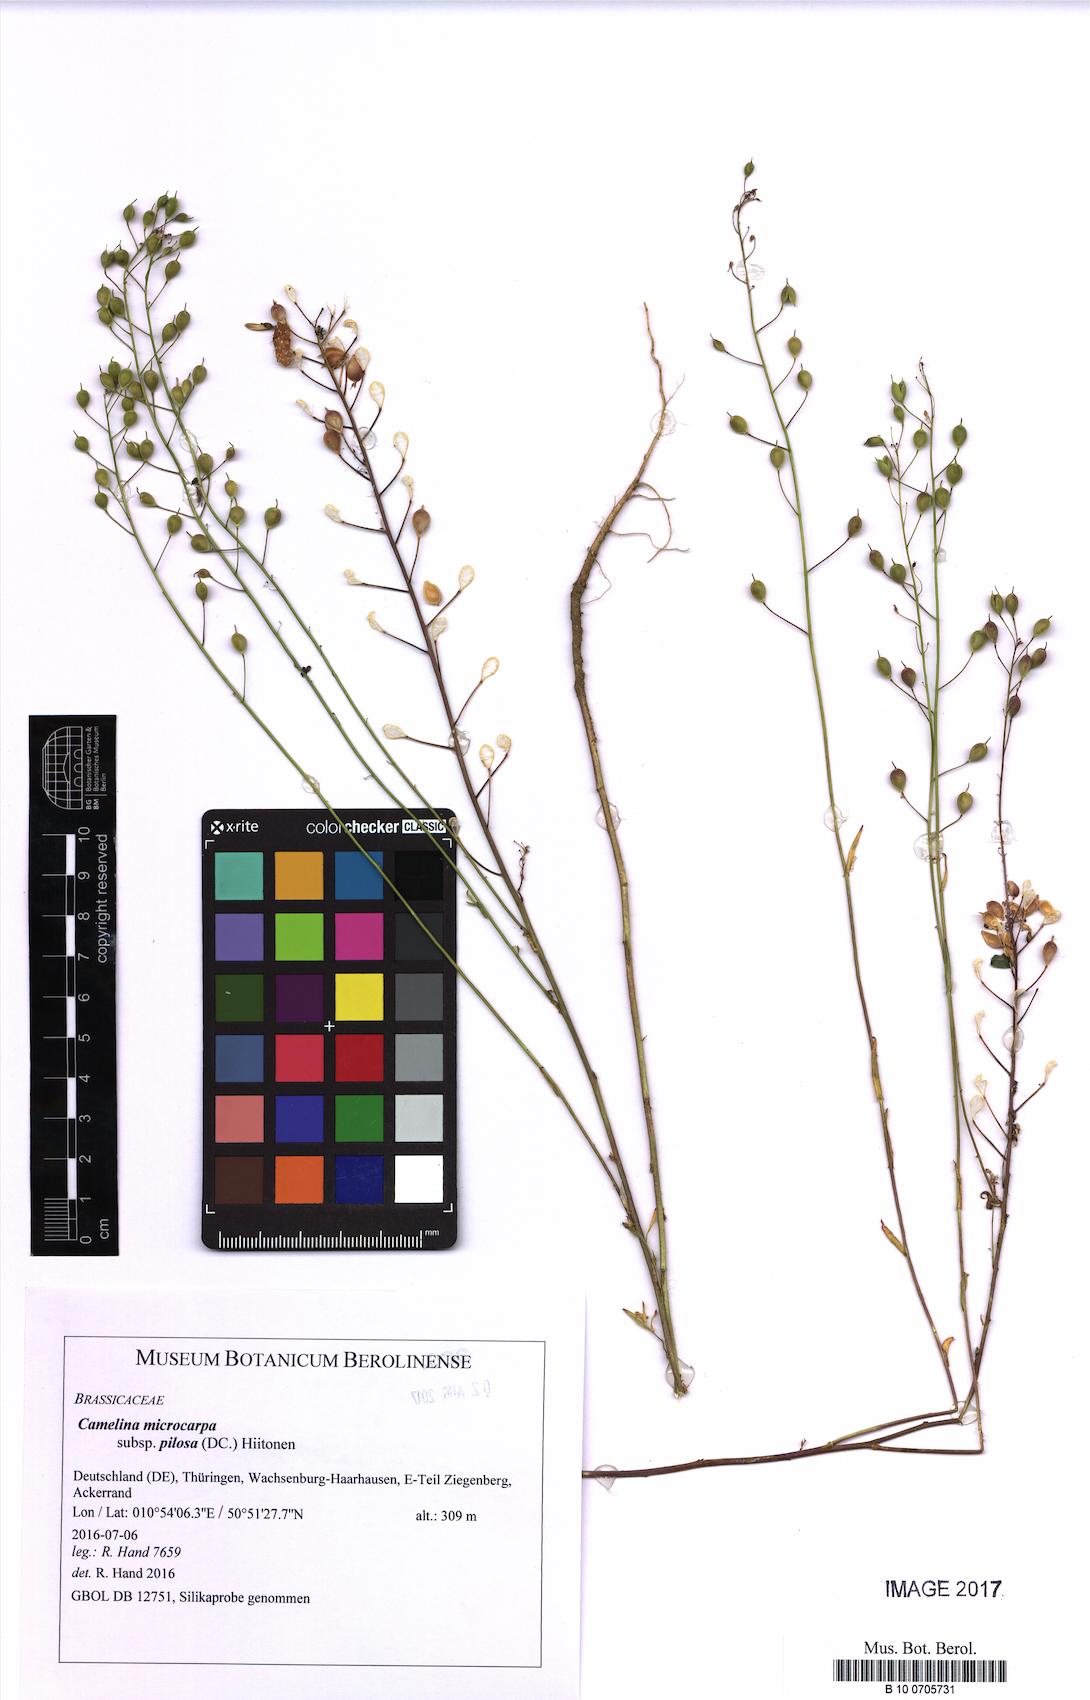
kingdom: Plantae
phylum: Tracheophyta
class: Magnoliopsida
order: Brassicales
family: Brassicaceae
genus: Camelina
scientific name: Camelina microcarpa
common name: Lesser gold-of-pleasure
